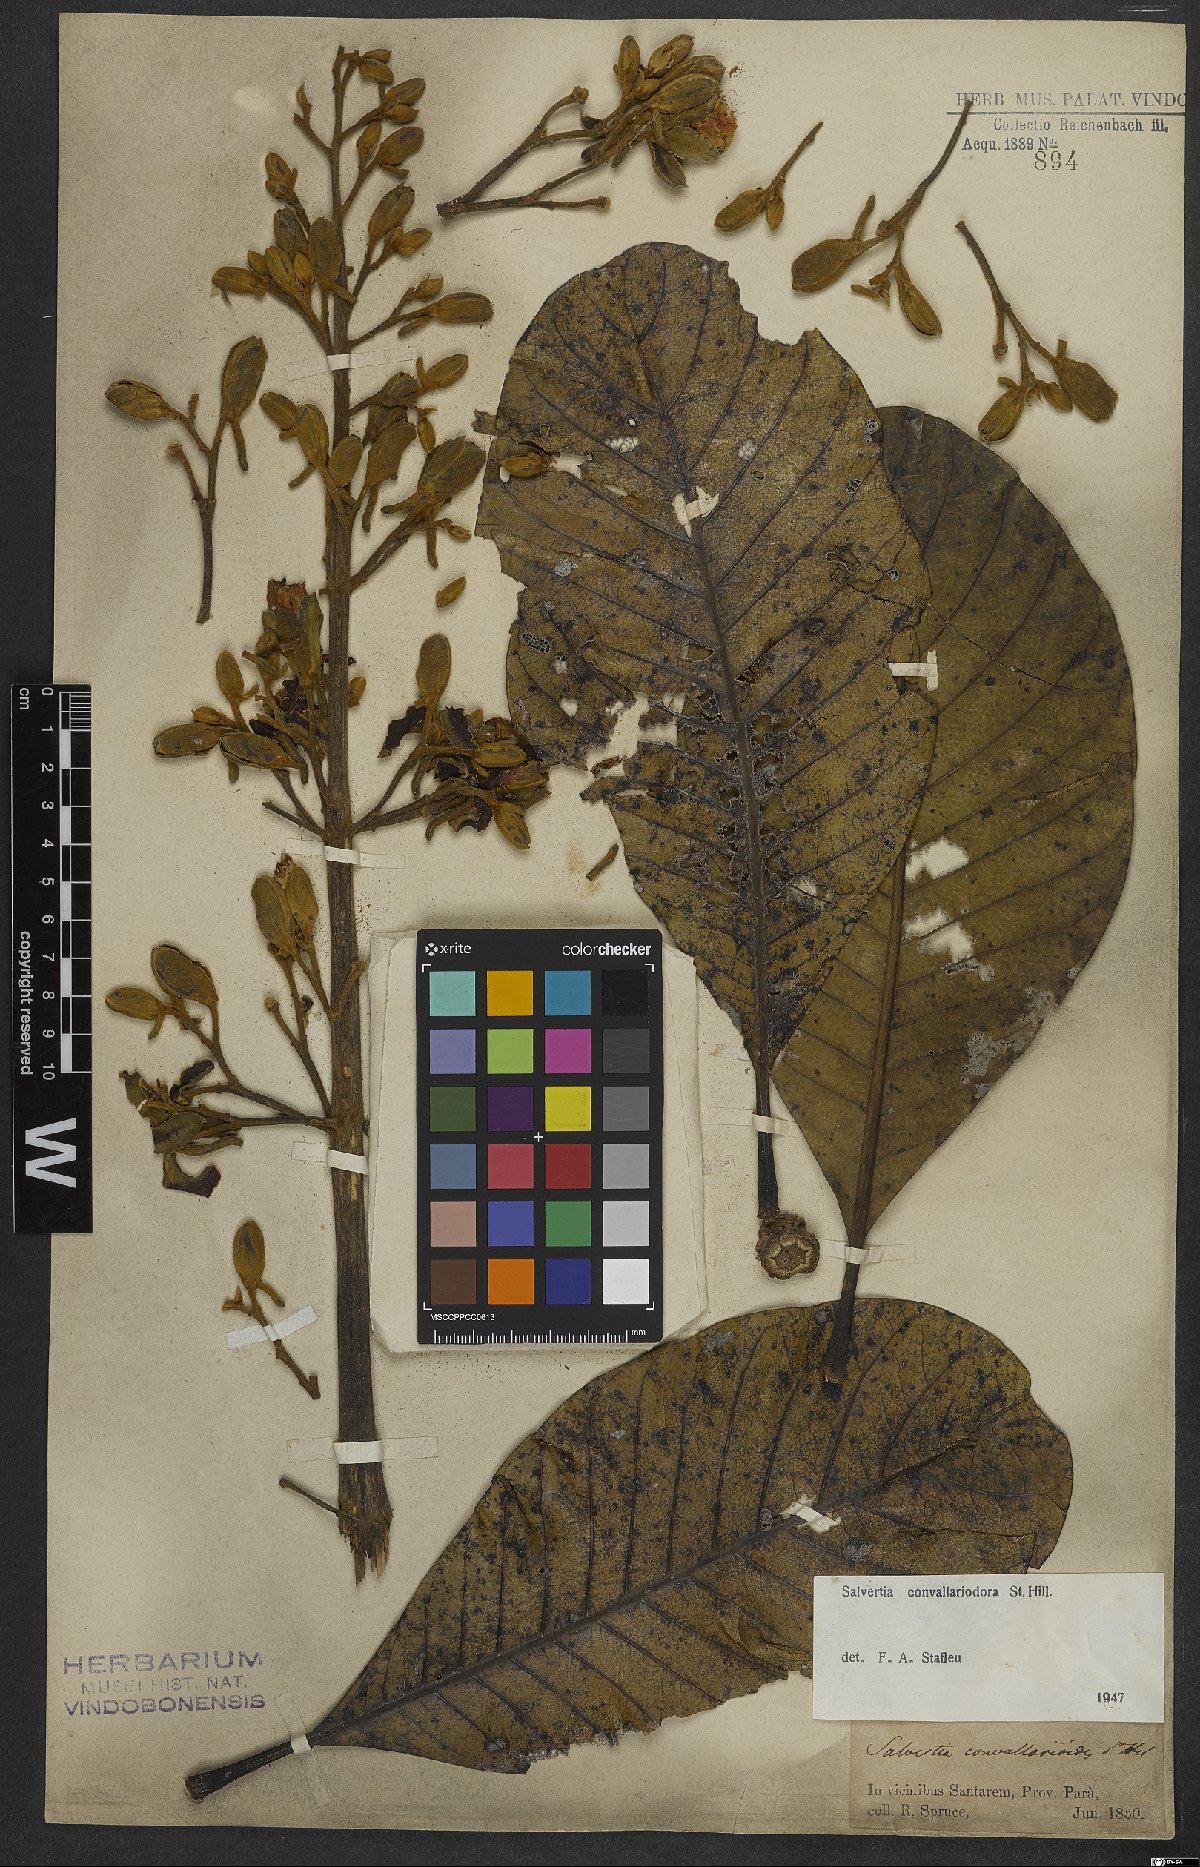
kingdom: Plantae
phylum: Tracheophyta
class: Magnoliopsida
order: Myrtales
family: Vochysiaceae
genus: Salvertia
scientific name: Salvertia convallariodora
